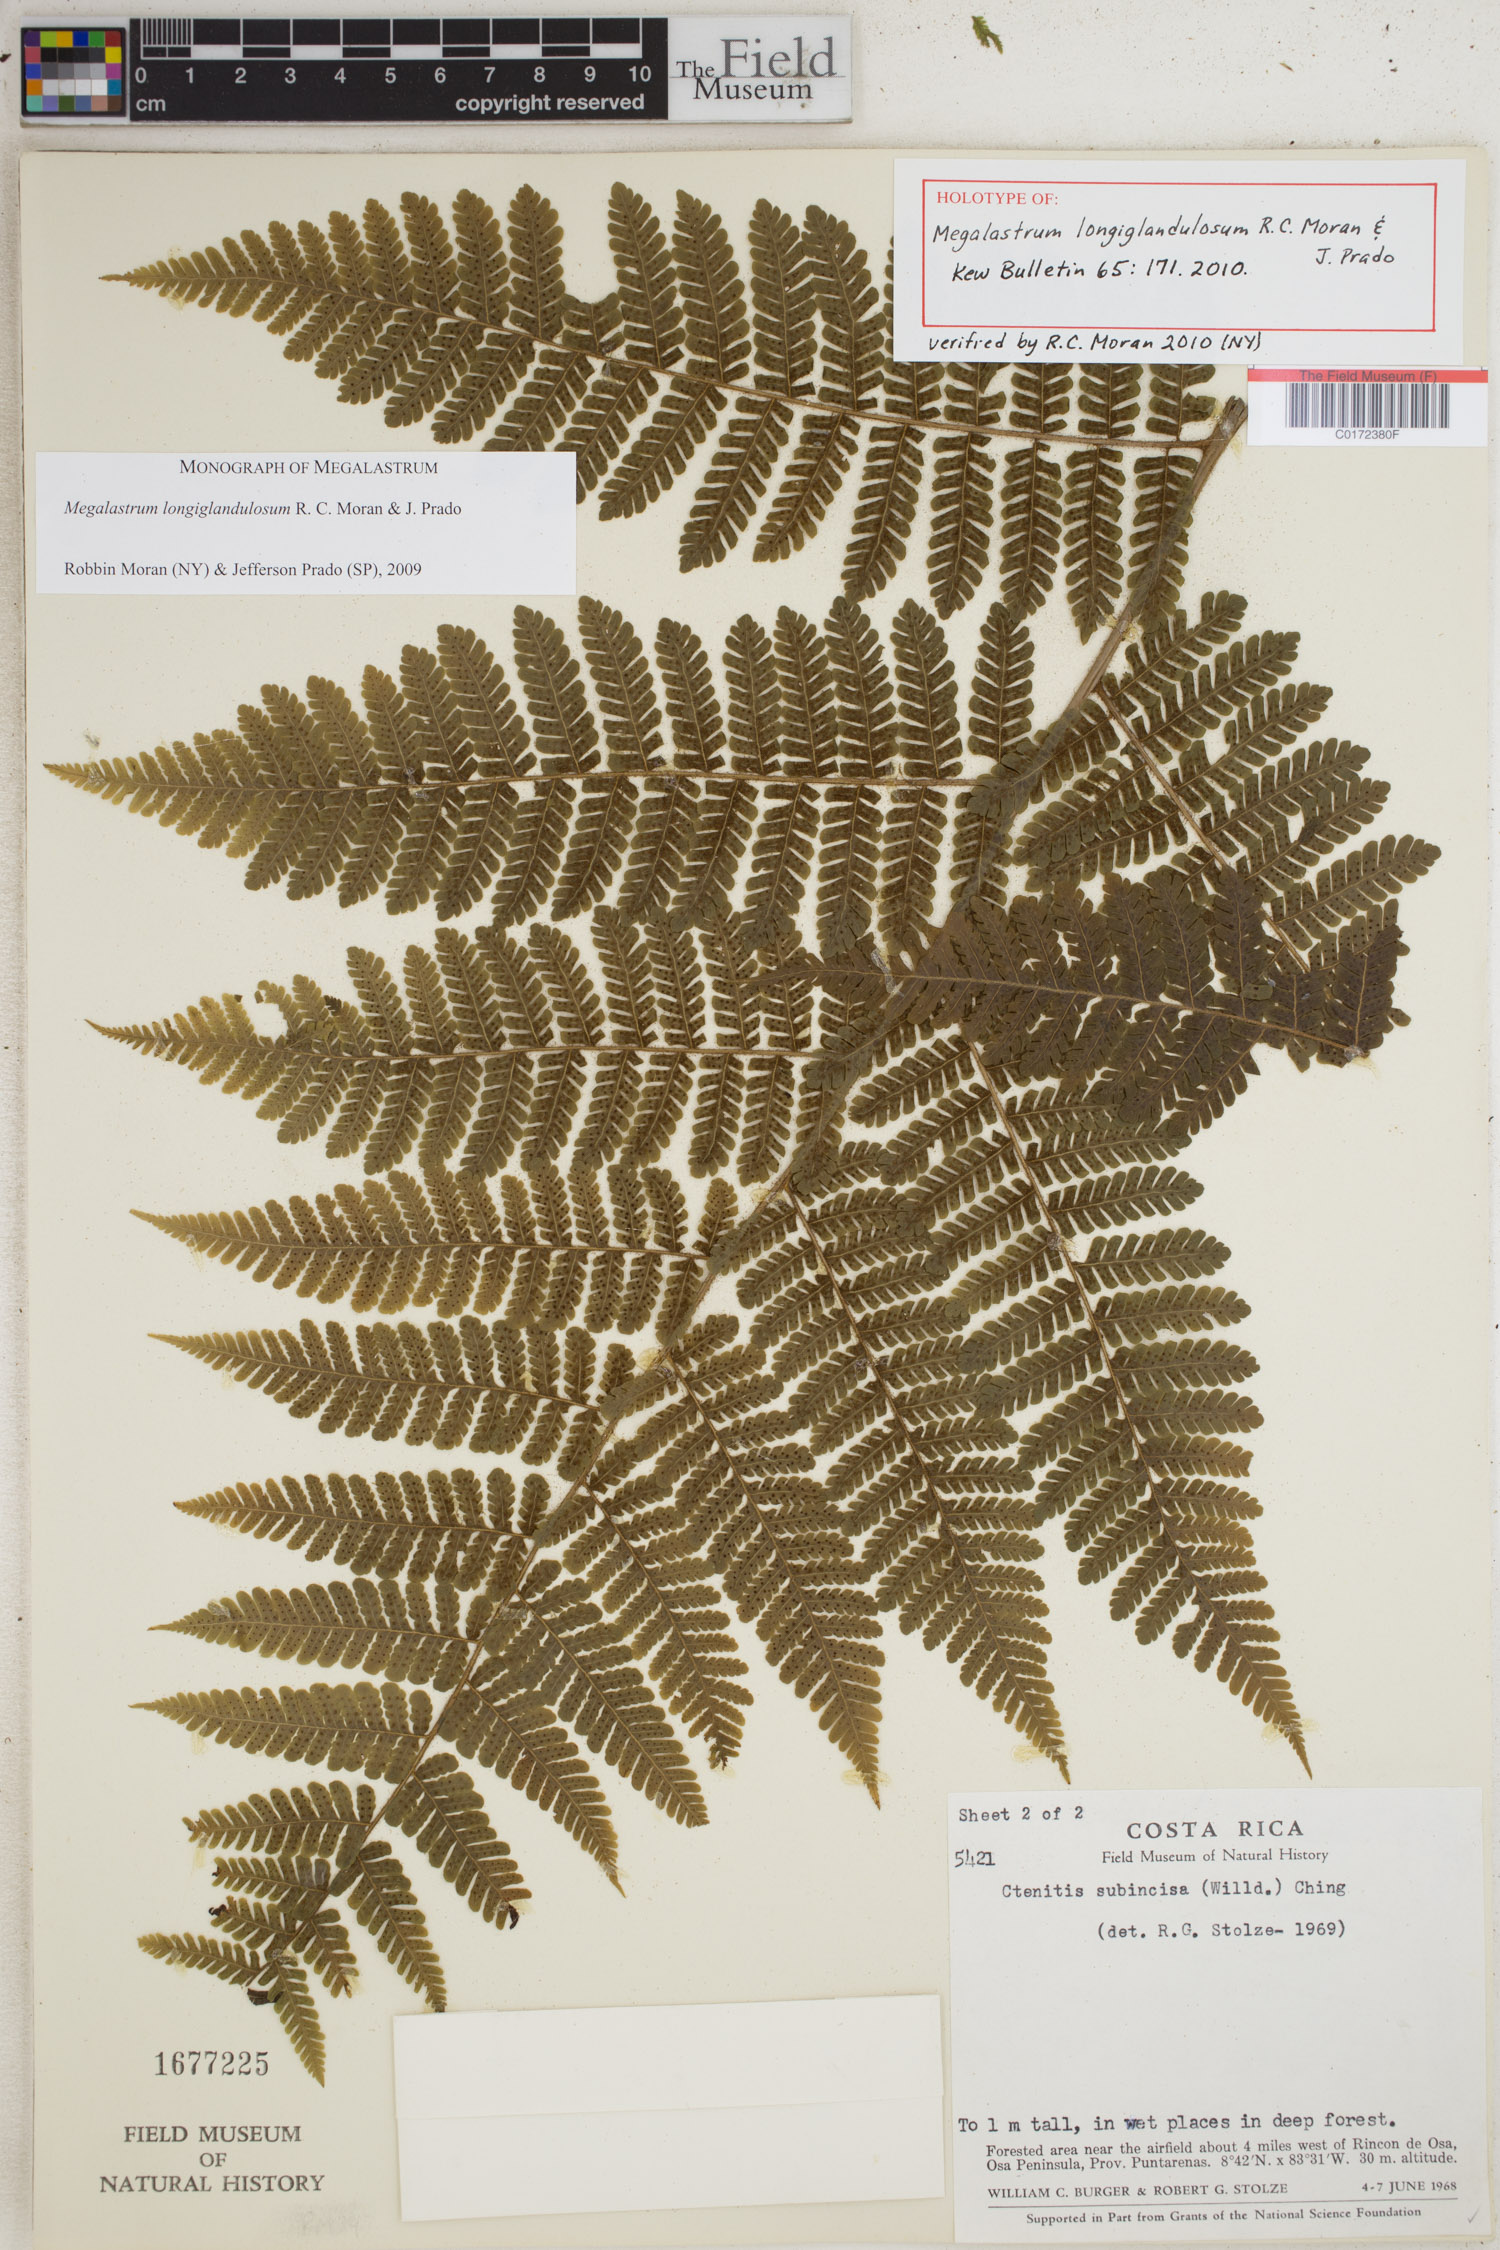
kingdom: Plantae
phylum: Tracheophyta
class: Polypodiopsida
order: Polypodiales
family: Dryopteridaceae
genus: Megalastrum
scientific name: Megalastrum longiglandulosum
